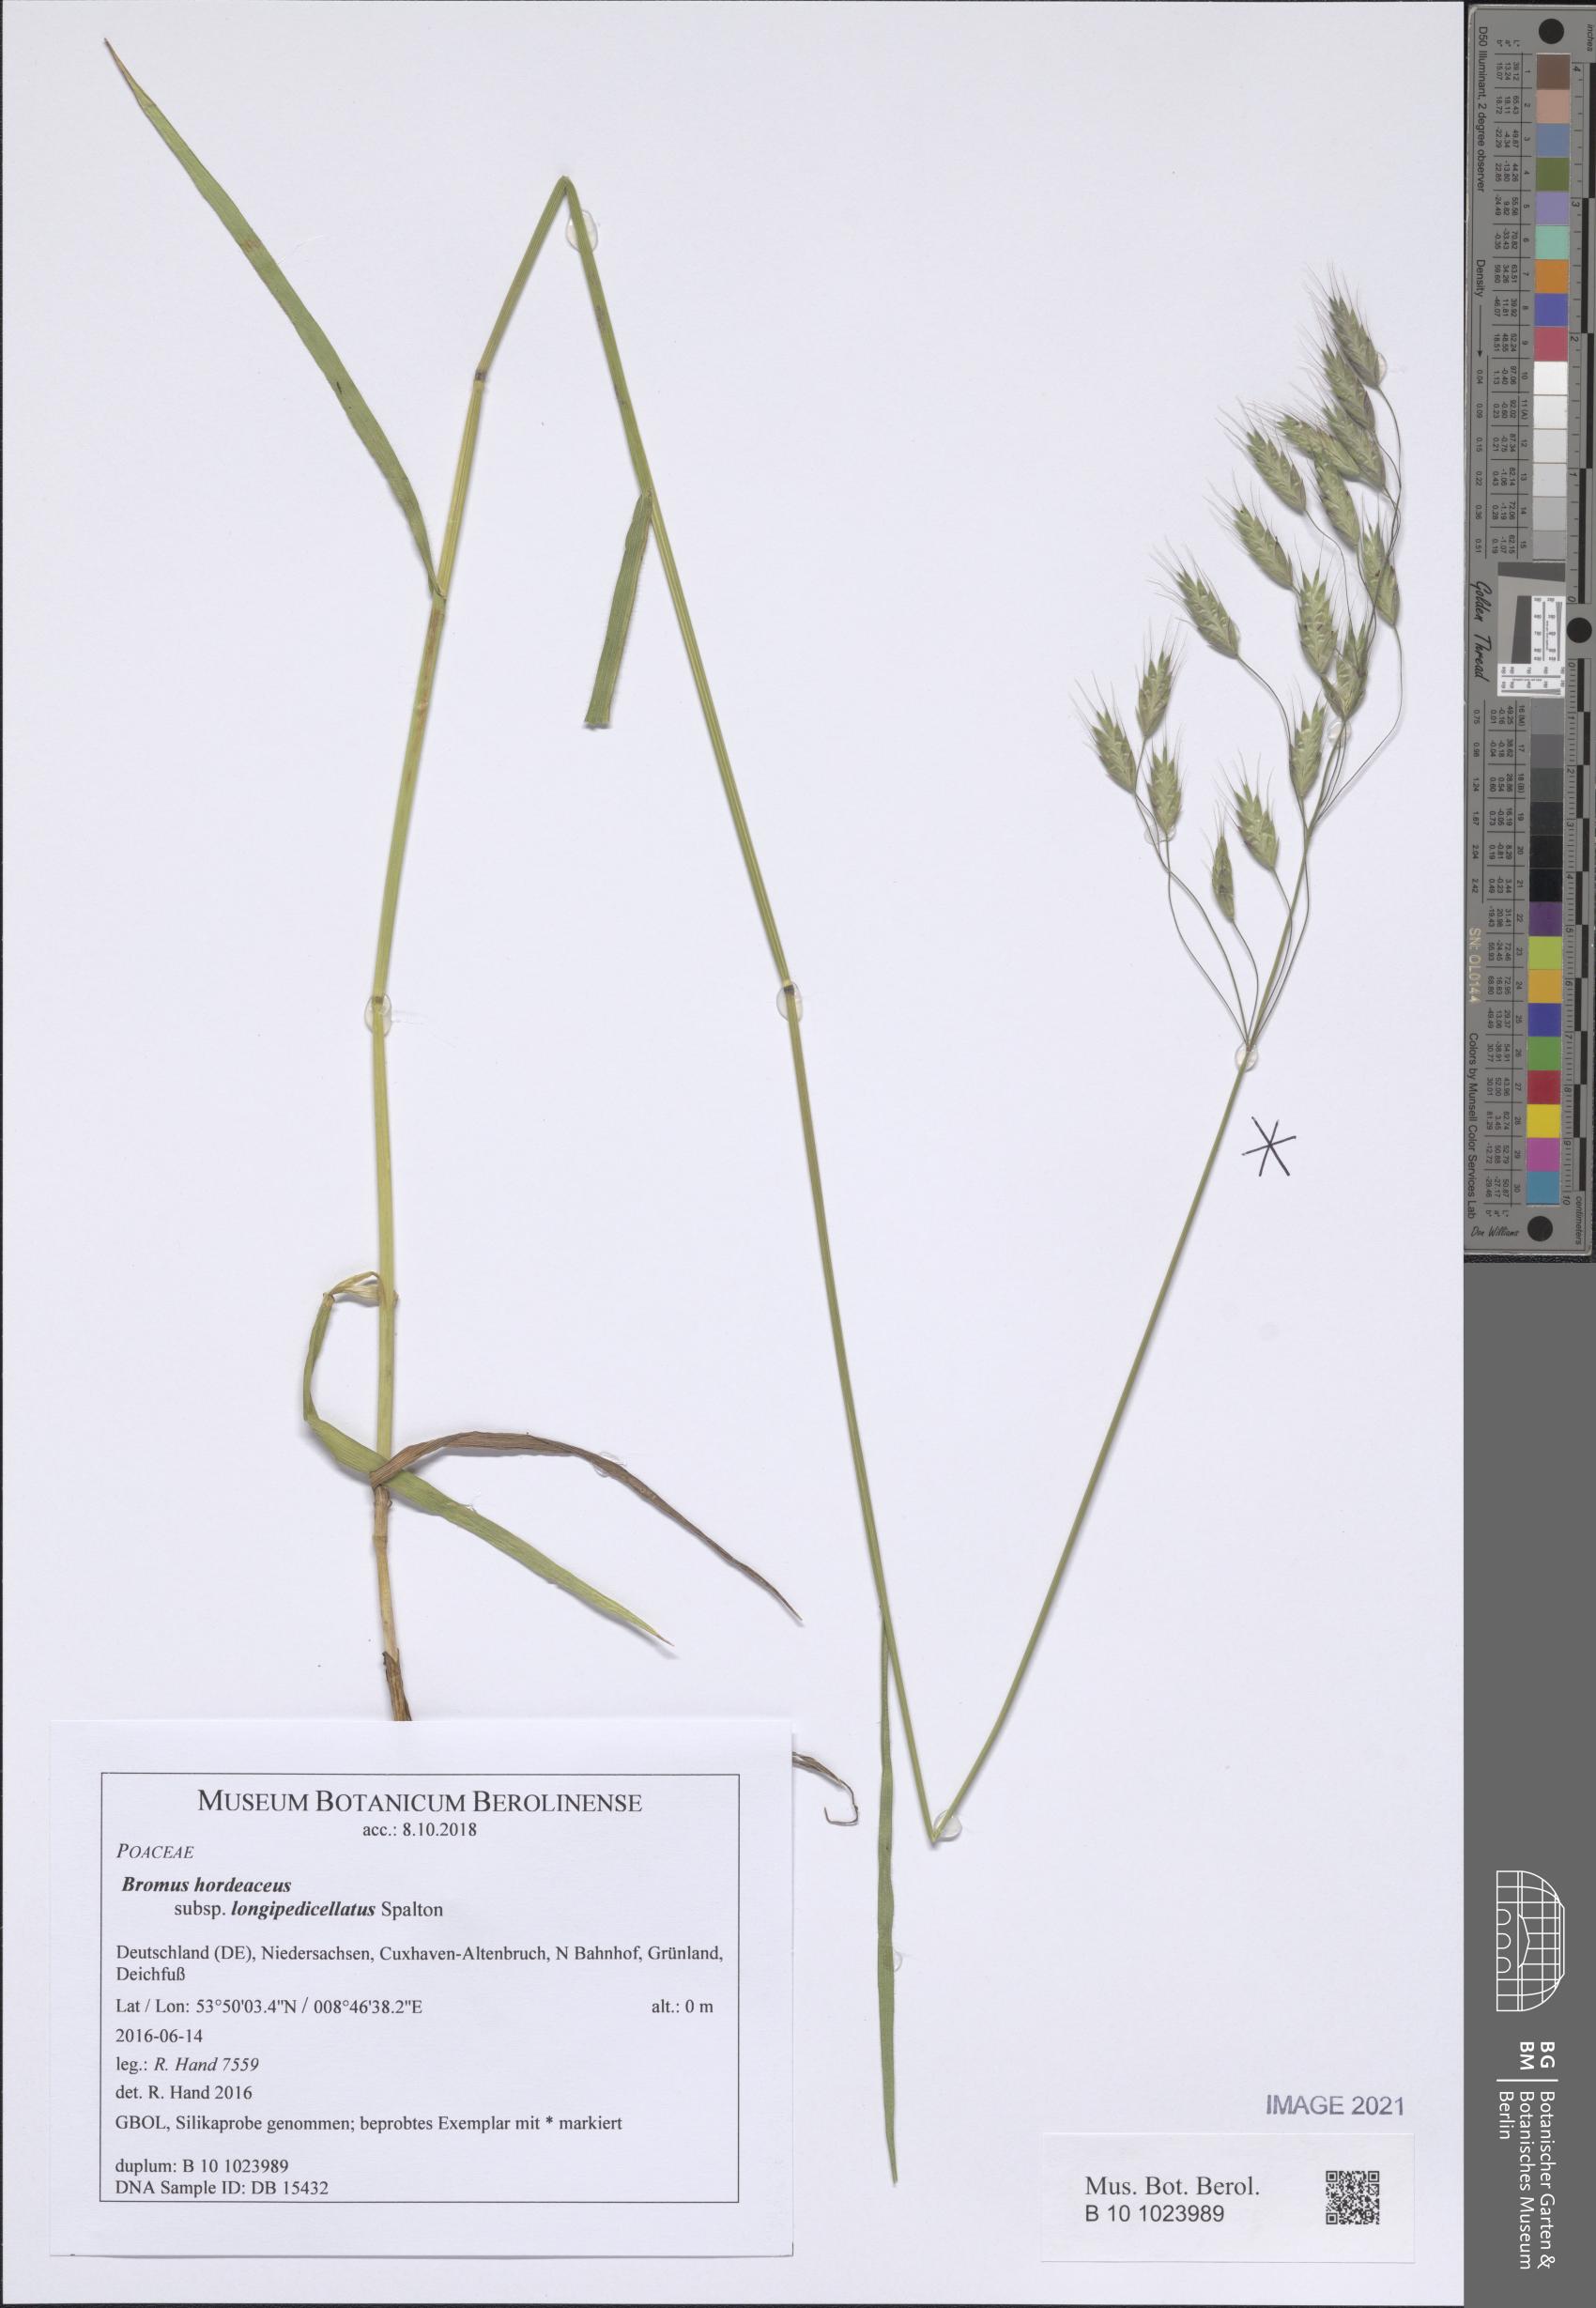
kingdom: Plantae
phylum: Tracheophyta
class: Liliopsida
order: Poales
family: Poaceae
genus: Bromus
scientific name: Bromus hordeaceus
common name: Soft brome
